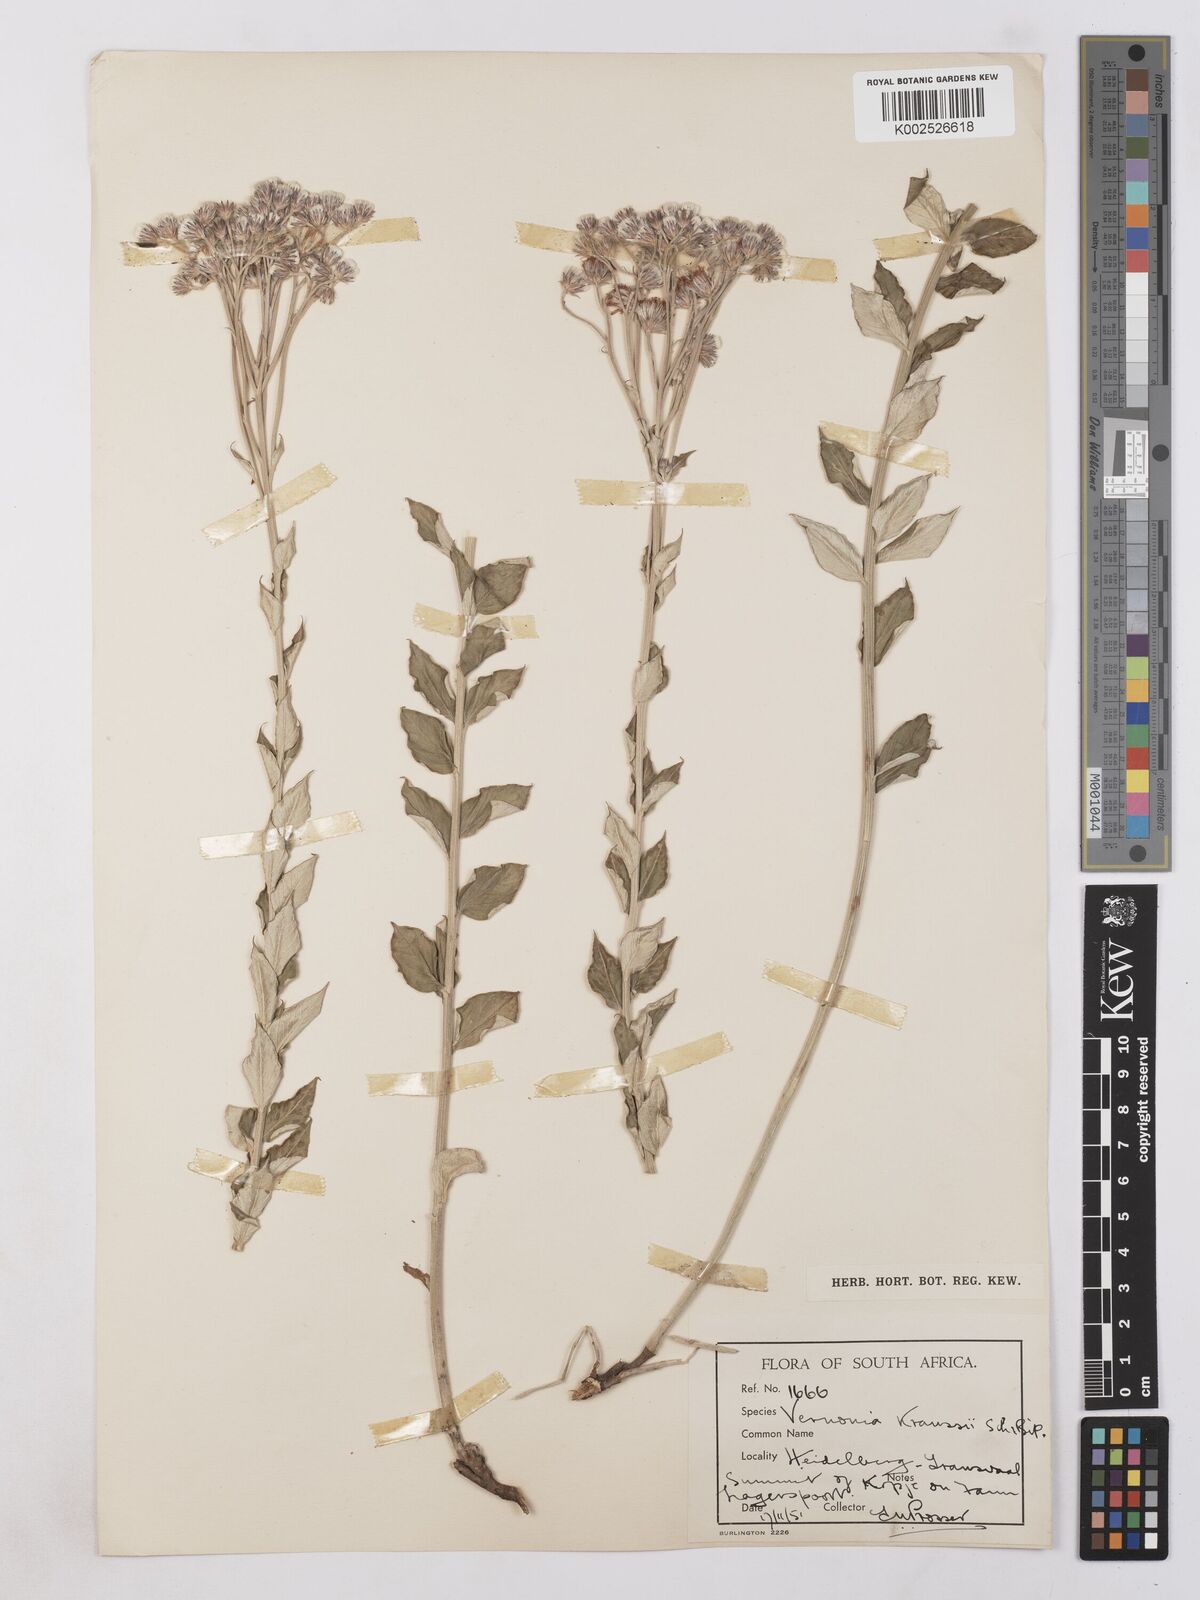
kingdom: Plantae
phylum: Tracheophyta
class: Magnoliopsida
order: Asterales
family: Asteraceae
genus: Hilliardiella
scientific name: Hilliardiella oligocephala
